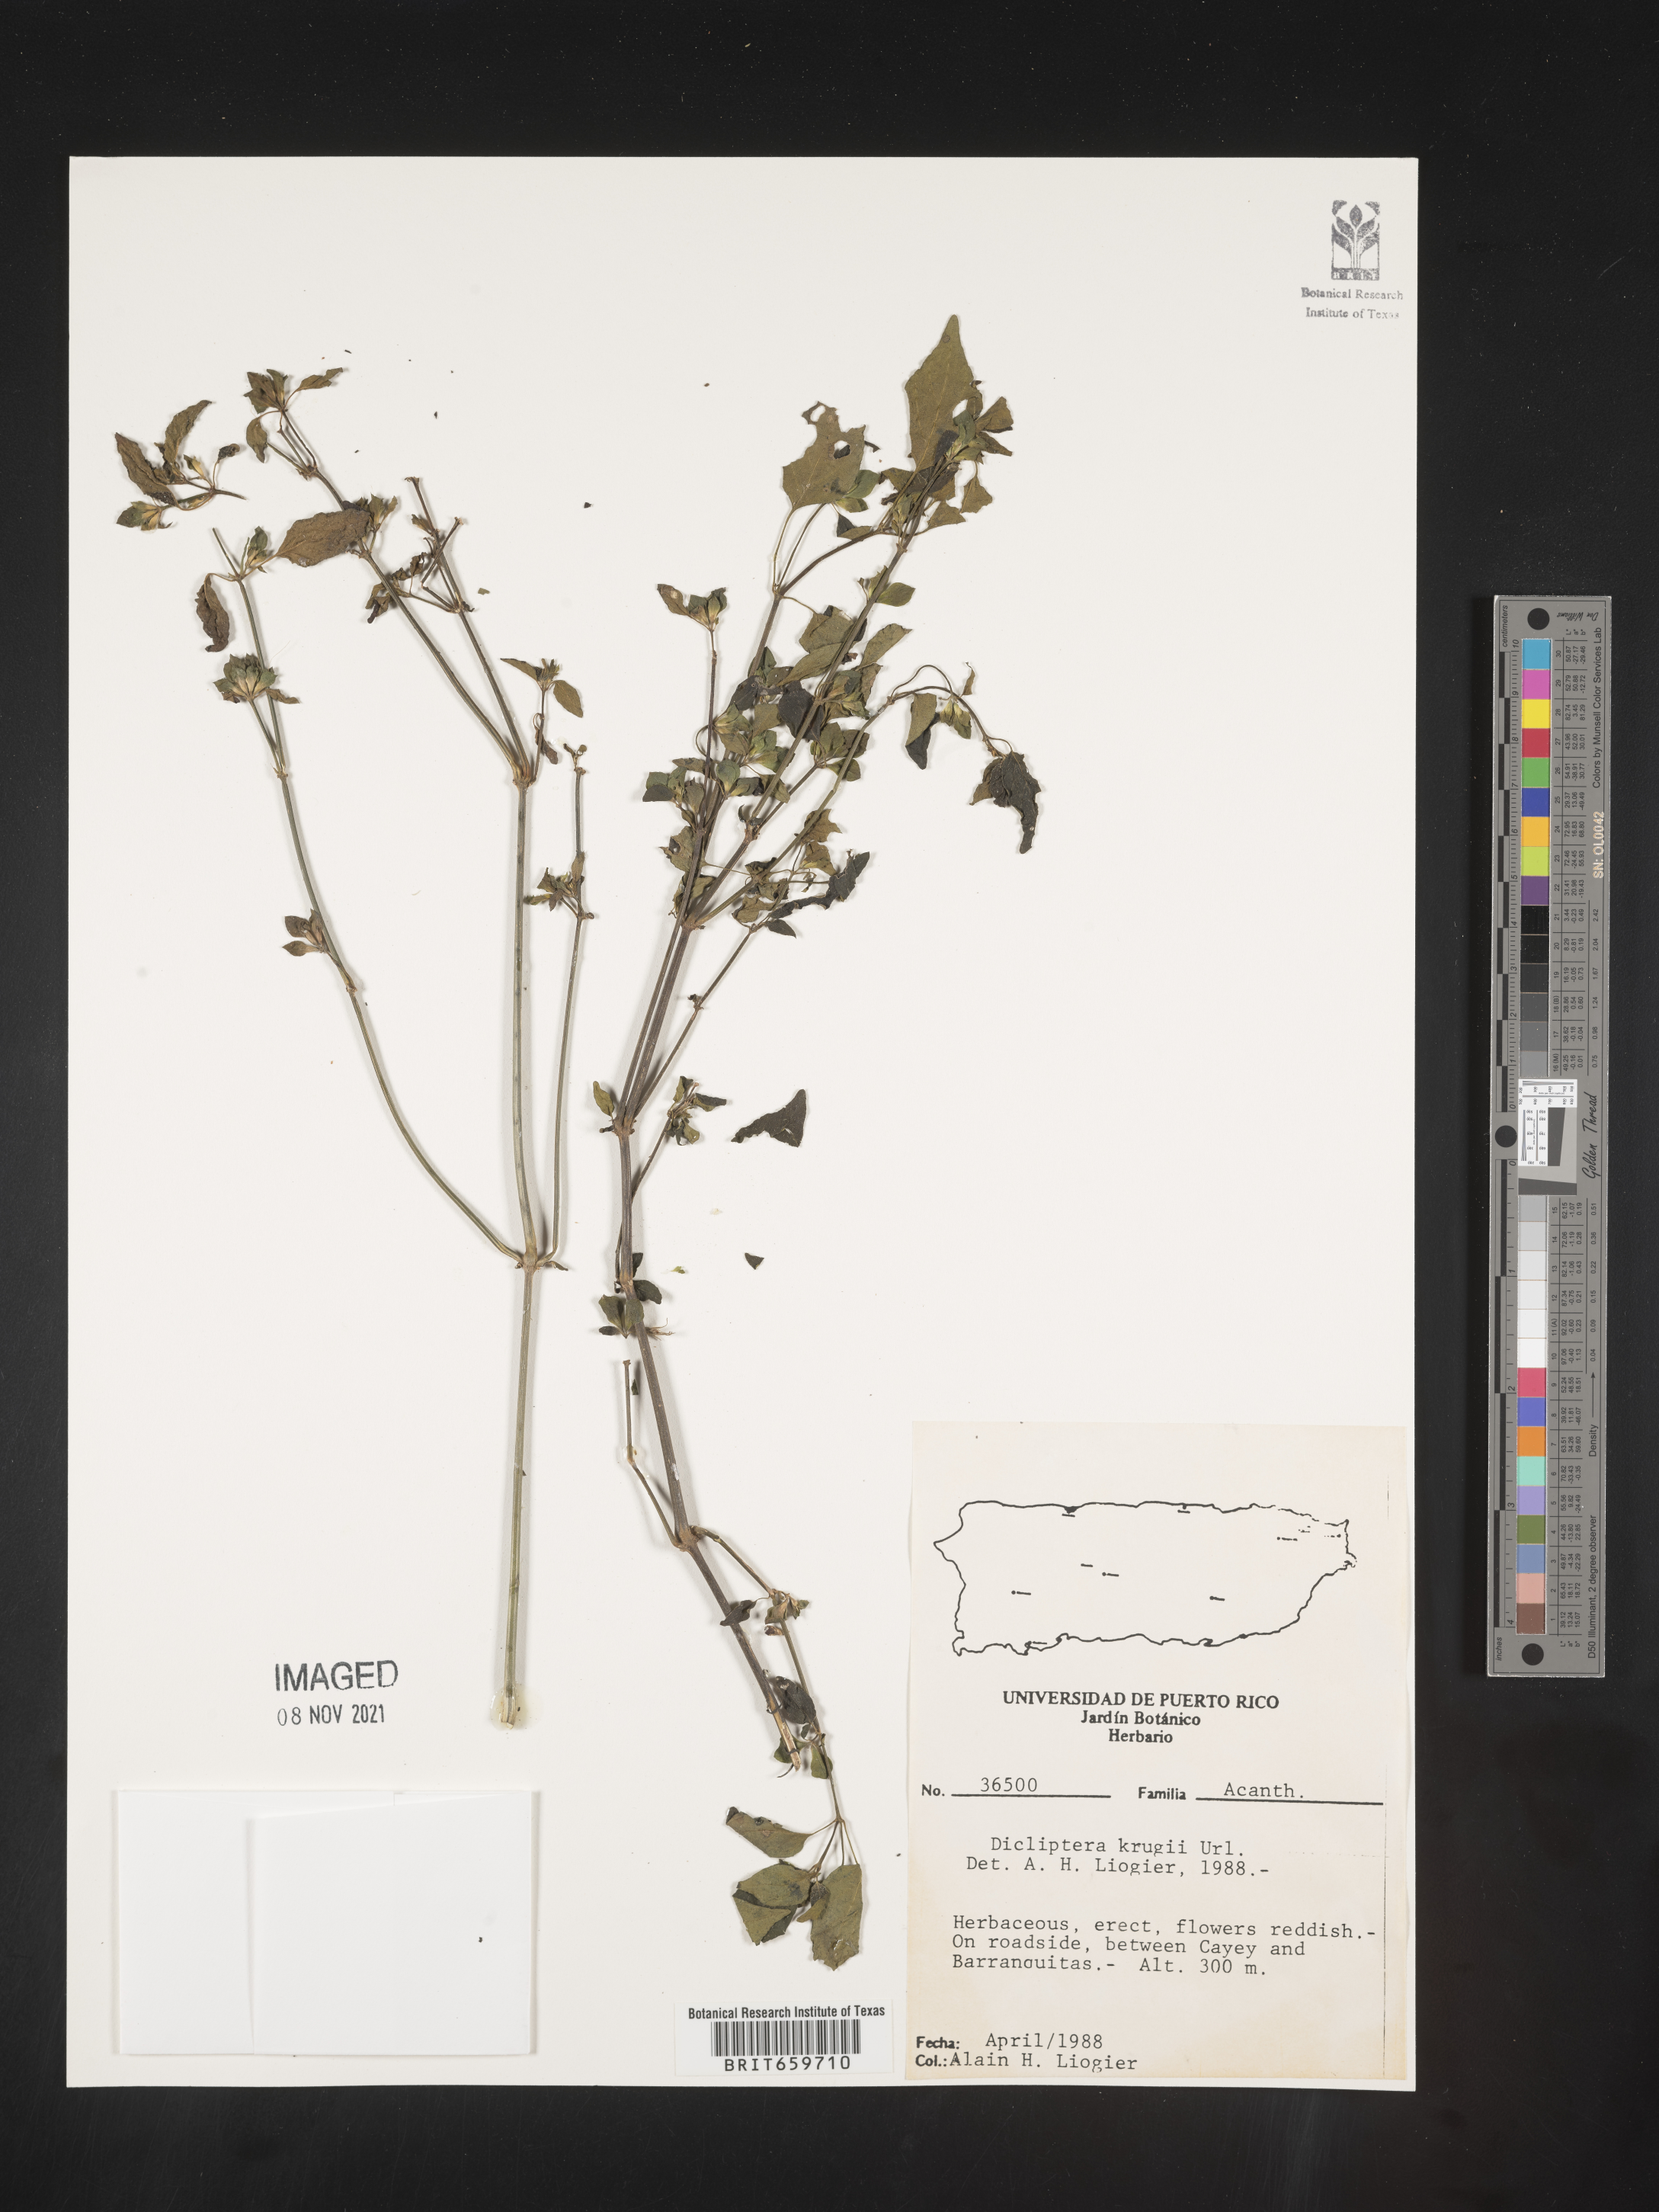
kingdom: Plantae
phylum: Tracheophyta
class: Magnoliopsida
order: Lamiales
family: Acanthaceae
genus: Dicliptera
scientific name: Dicliptera
